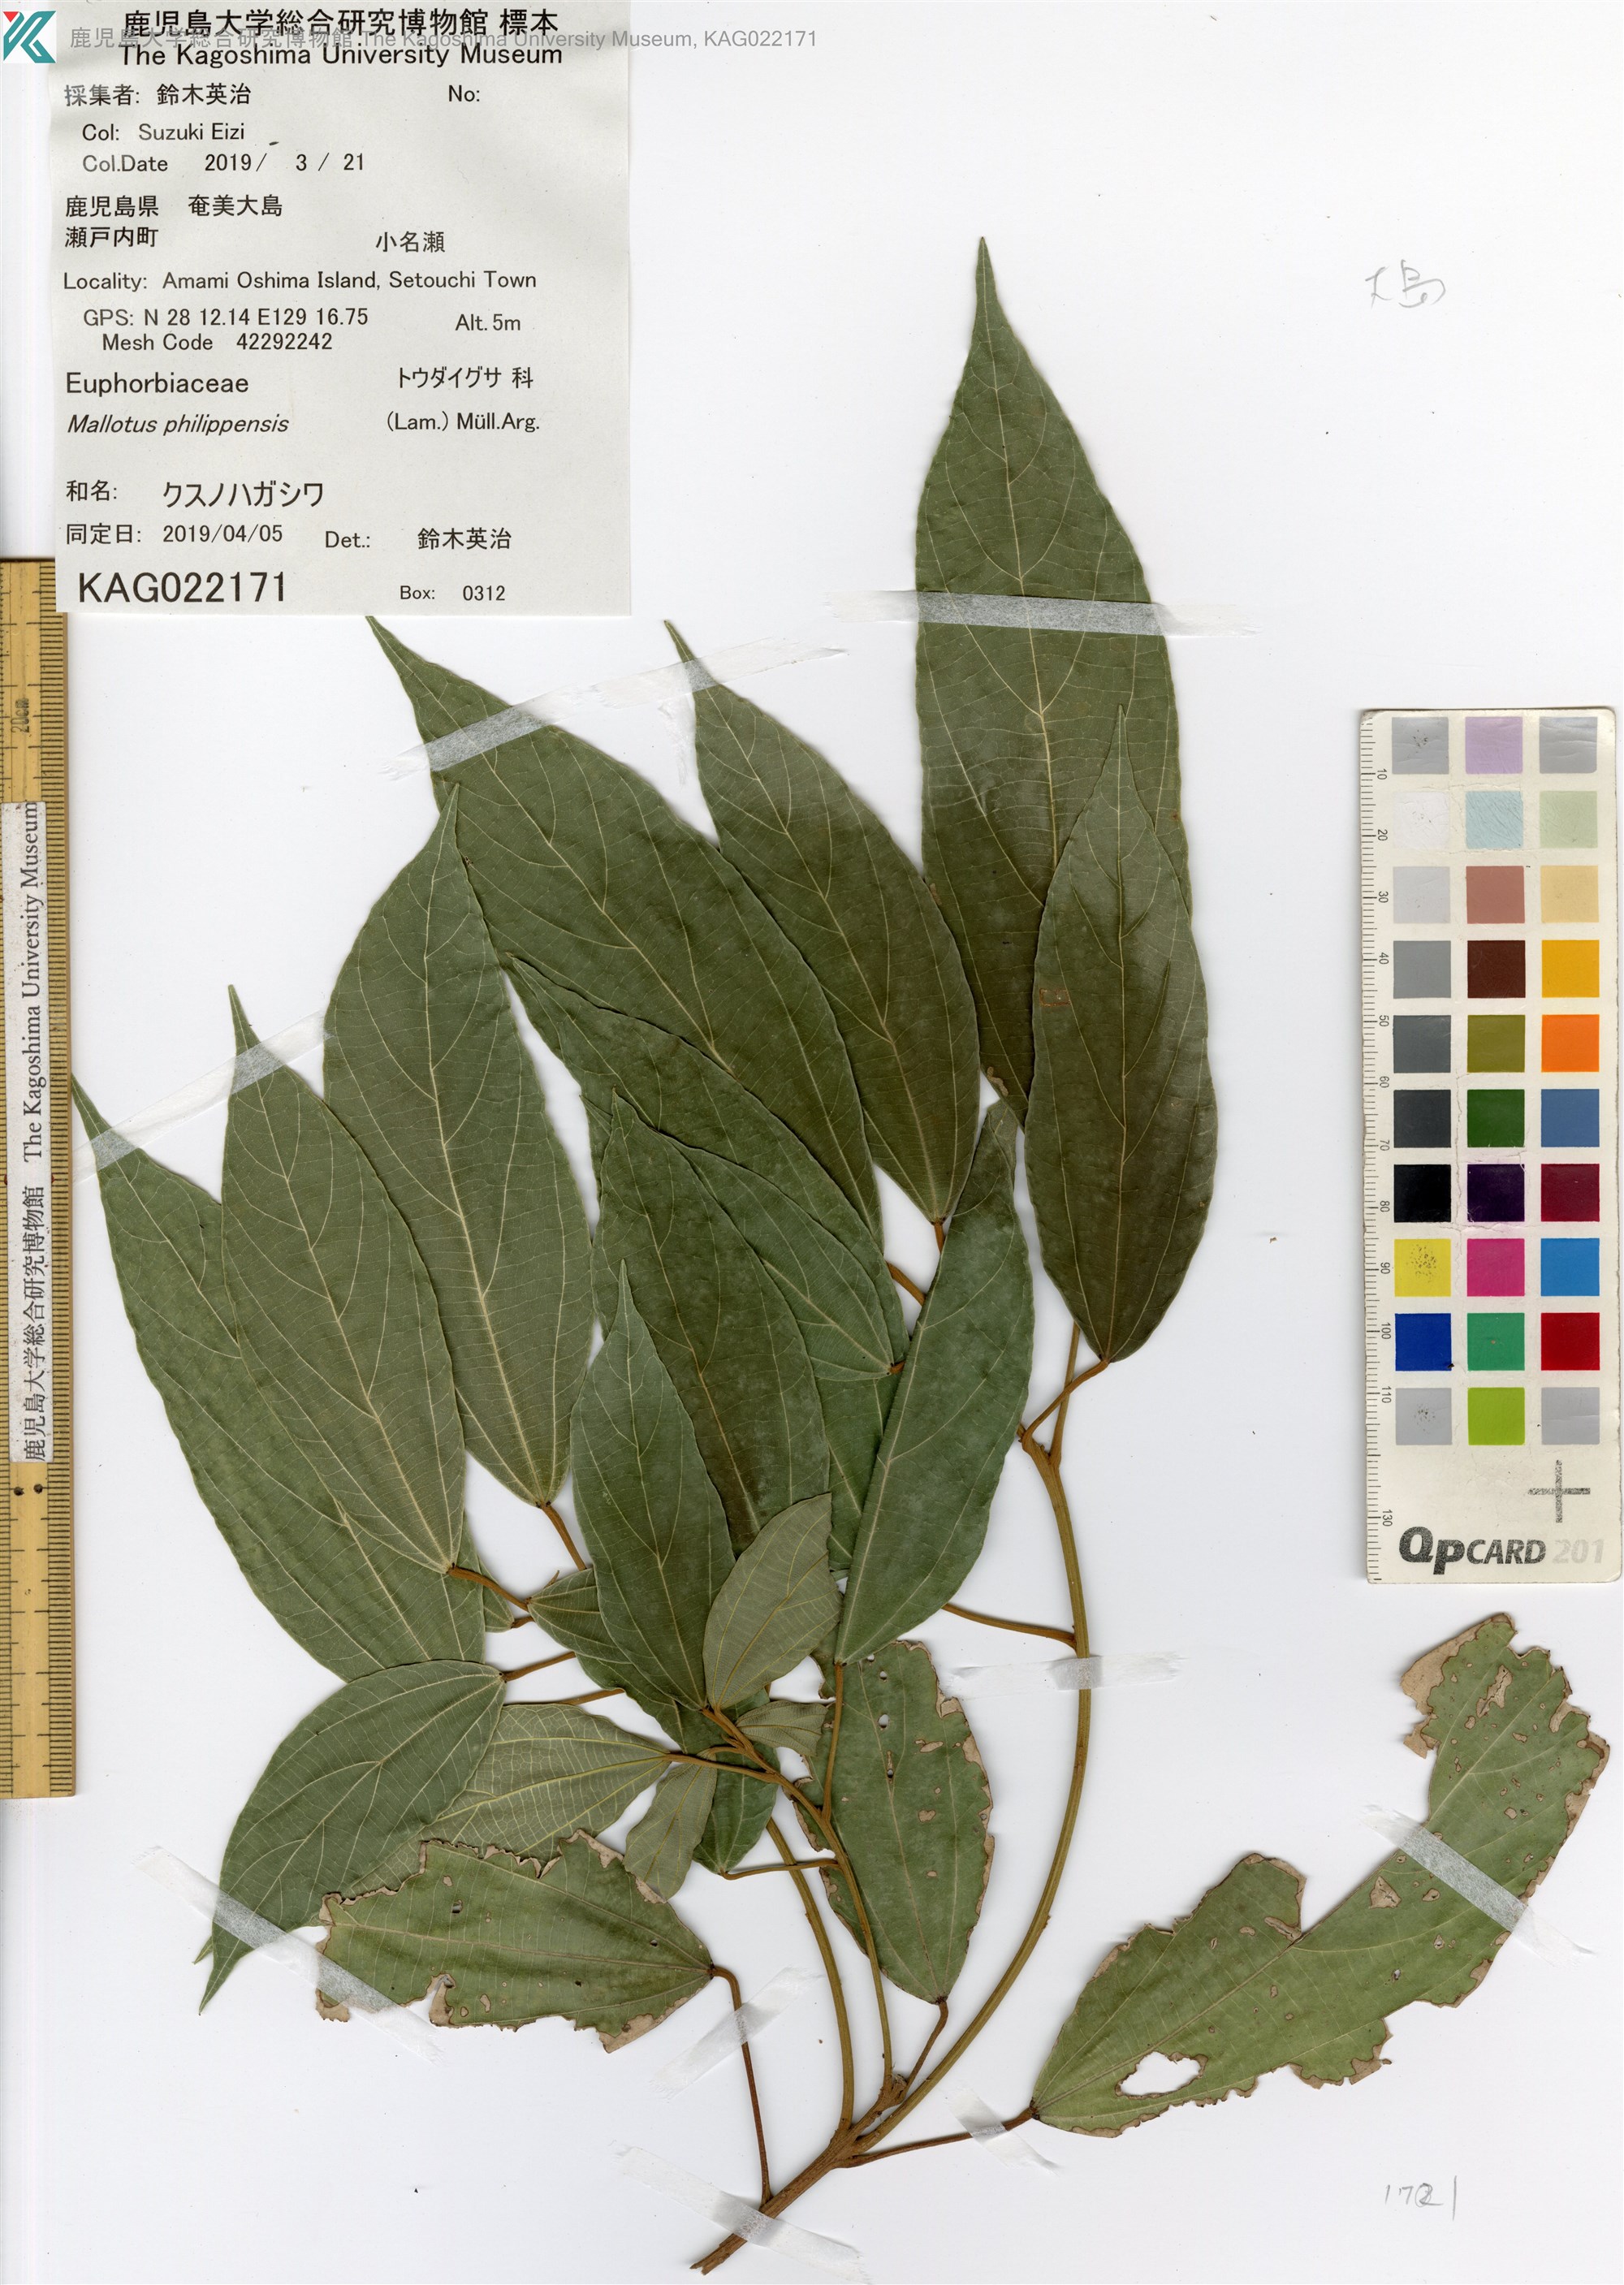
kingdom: Plantae
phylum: Tracheophyta
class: Magnoliopsida
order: Malpighiales
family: Euphorbiaceae
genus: Mallotus
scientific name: Mallotus philippensis
